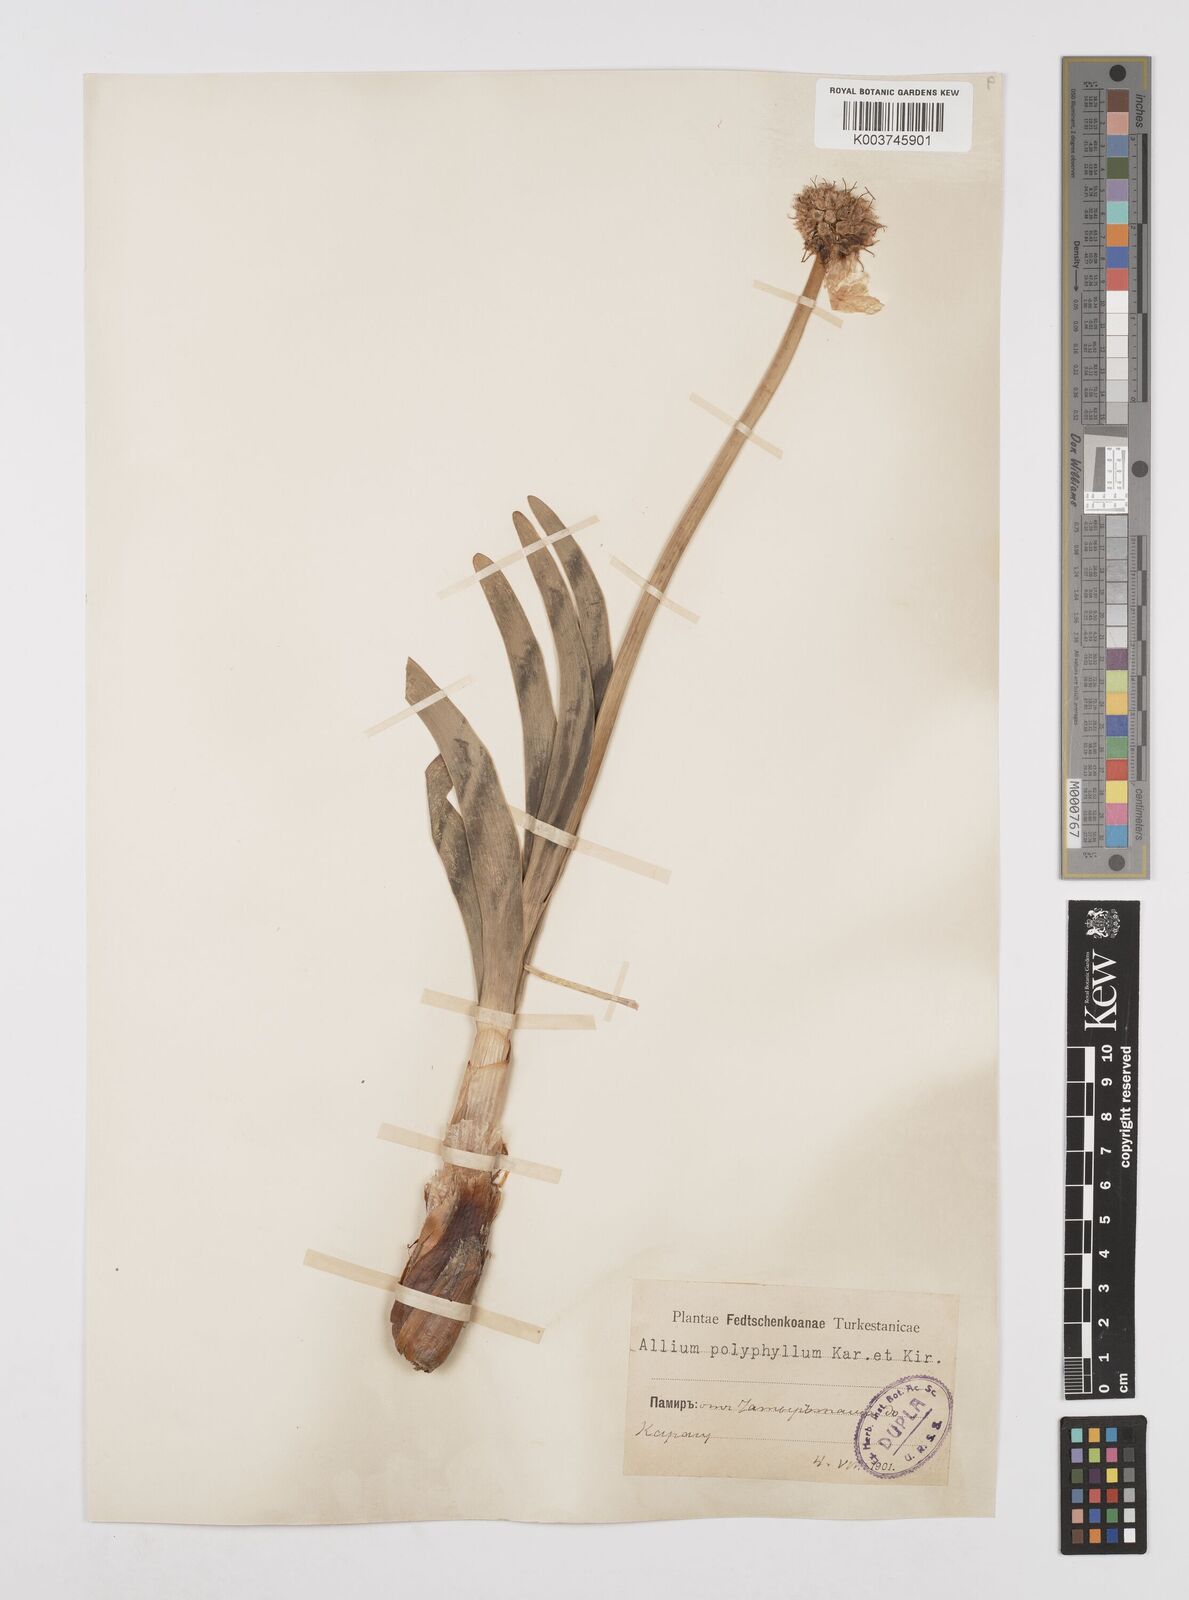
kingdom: Plantae
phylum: Tracheophyta
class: Liliopsida
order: Asparagales
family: Amaryllidaceae
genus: Allium
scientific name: Allium
